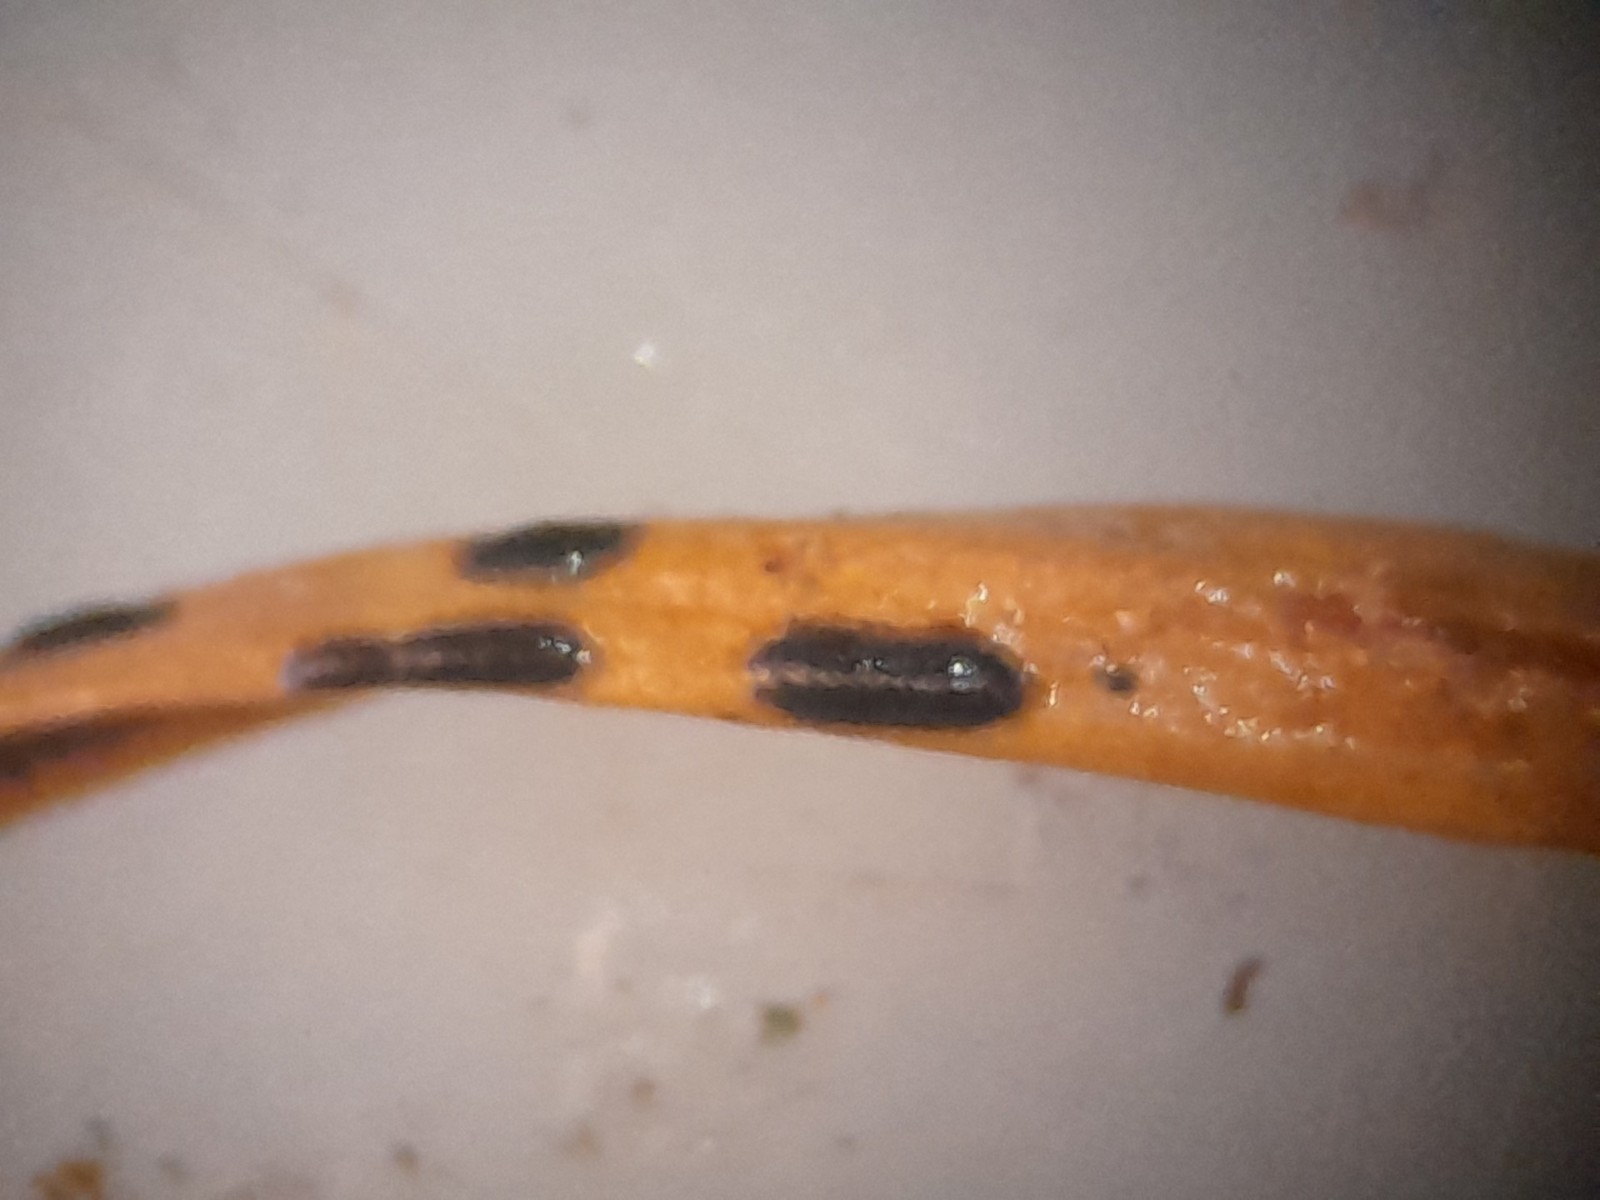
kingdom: Fungi
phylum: Ascomycota
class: Leotiomycetes
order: Rhytismatales
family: Rhytismataceae
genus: Lophodermium
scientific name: Lophodermium
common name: fureplet
